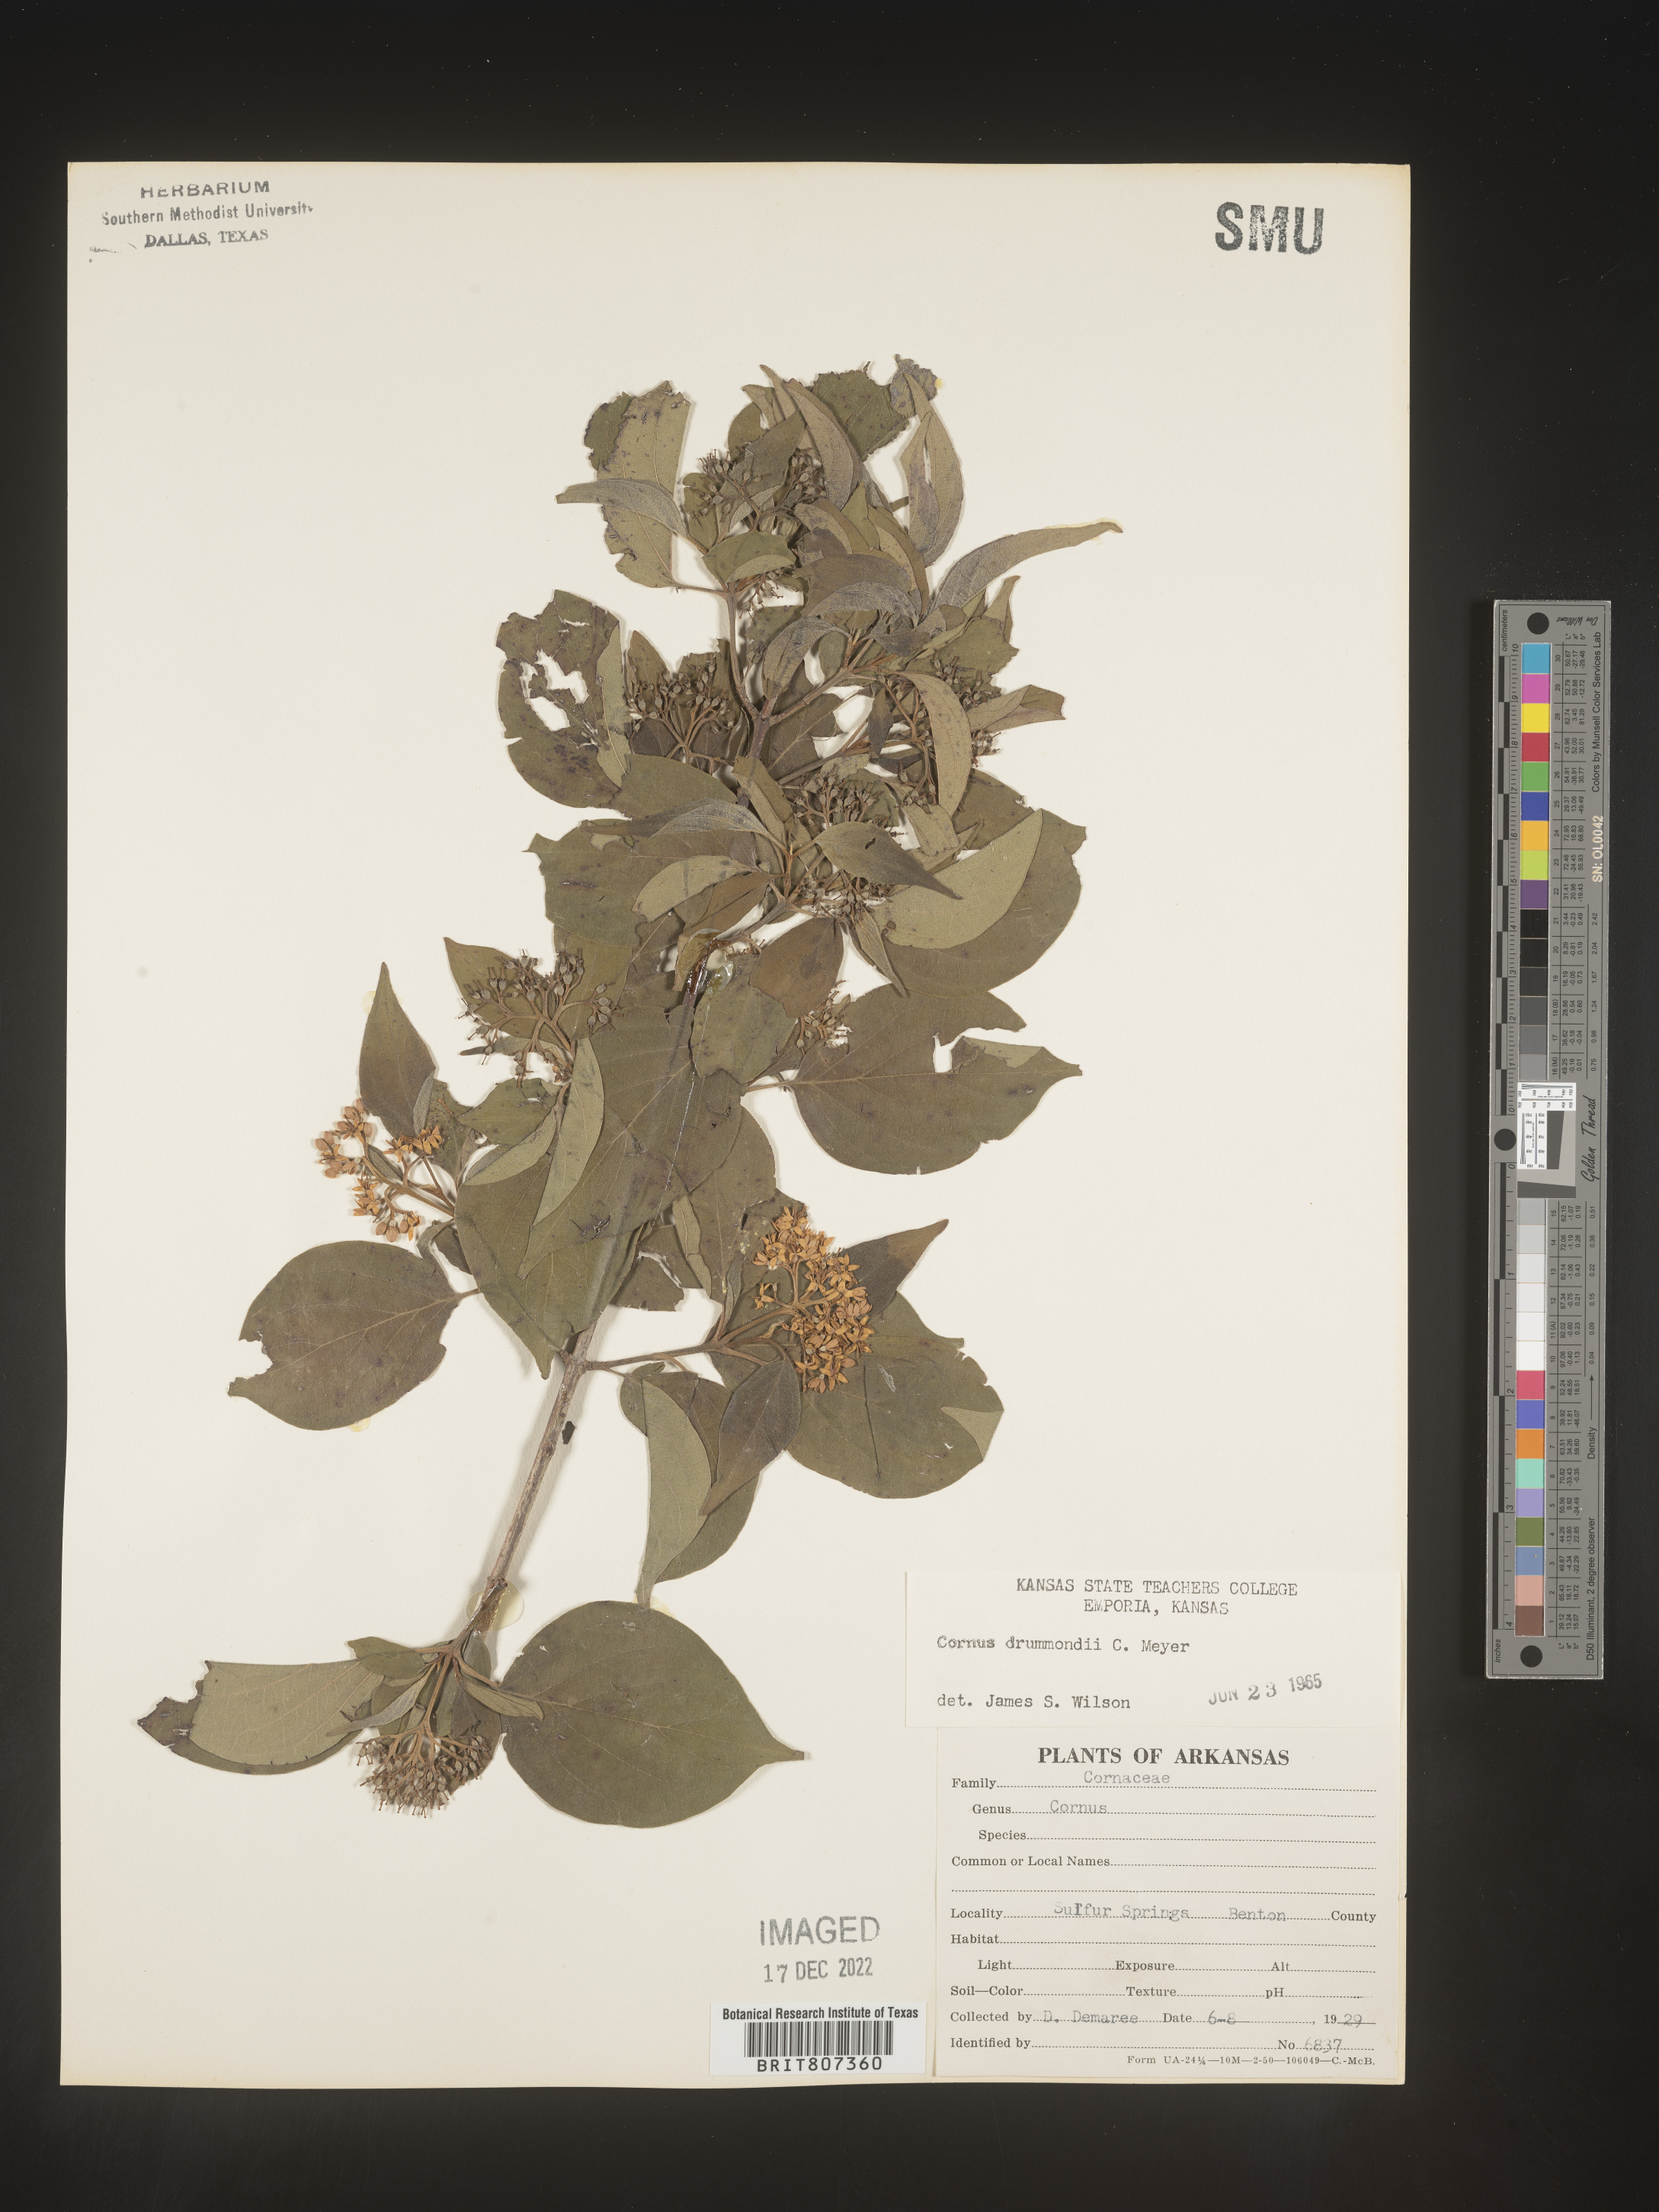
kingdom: Plantae
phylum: Tracheophyta
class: Magnoliopsida
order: Cornales
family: Cornaceae
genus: Cornus
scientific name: Cornus drummondii
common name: Rough-leaf dogwood
